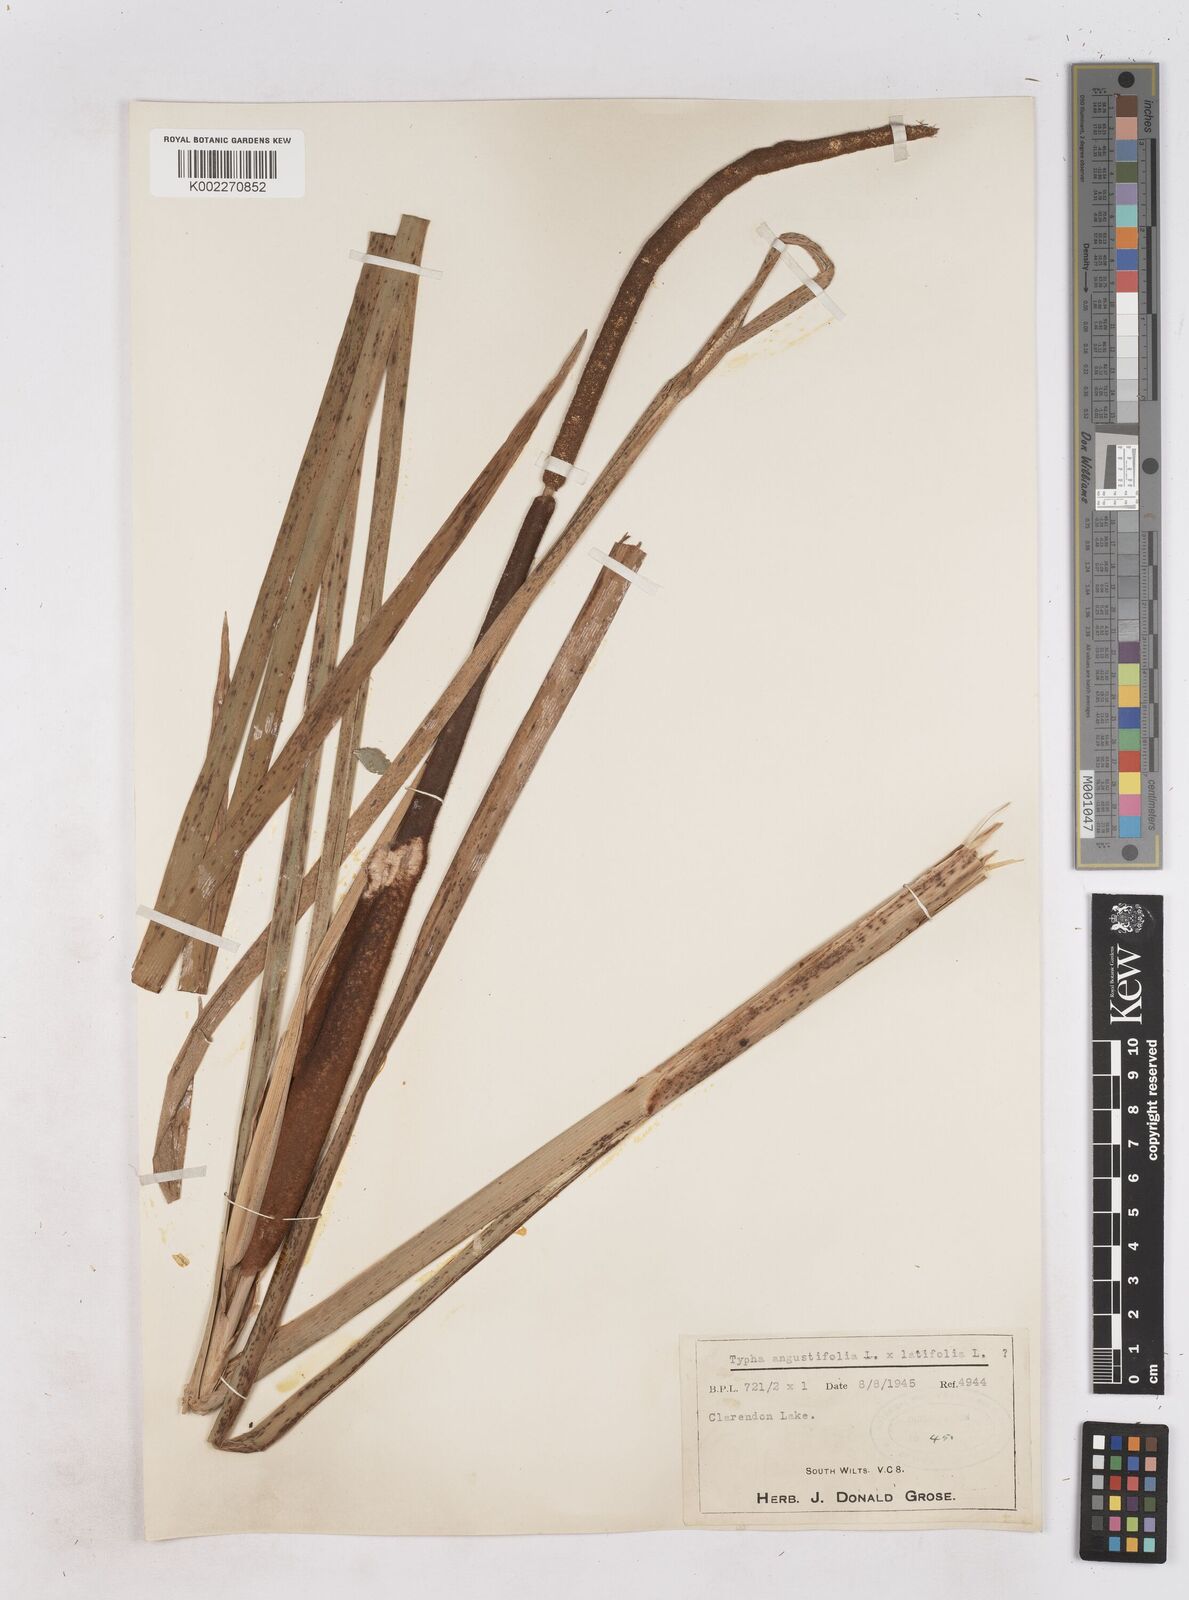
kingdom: Plantae
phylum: Tracheophyta
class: Liliopsida
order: Poales
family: Typhaceae
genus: Typha
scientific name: Typha angustifolia
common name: Lesser bulrush
